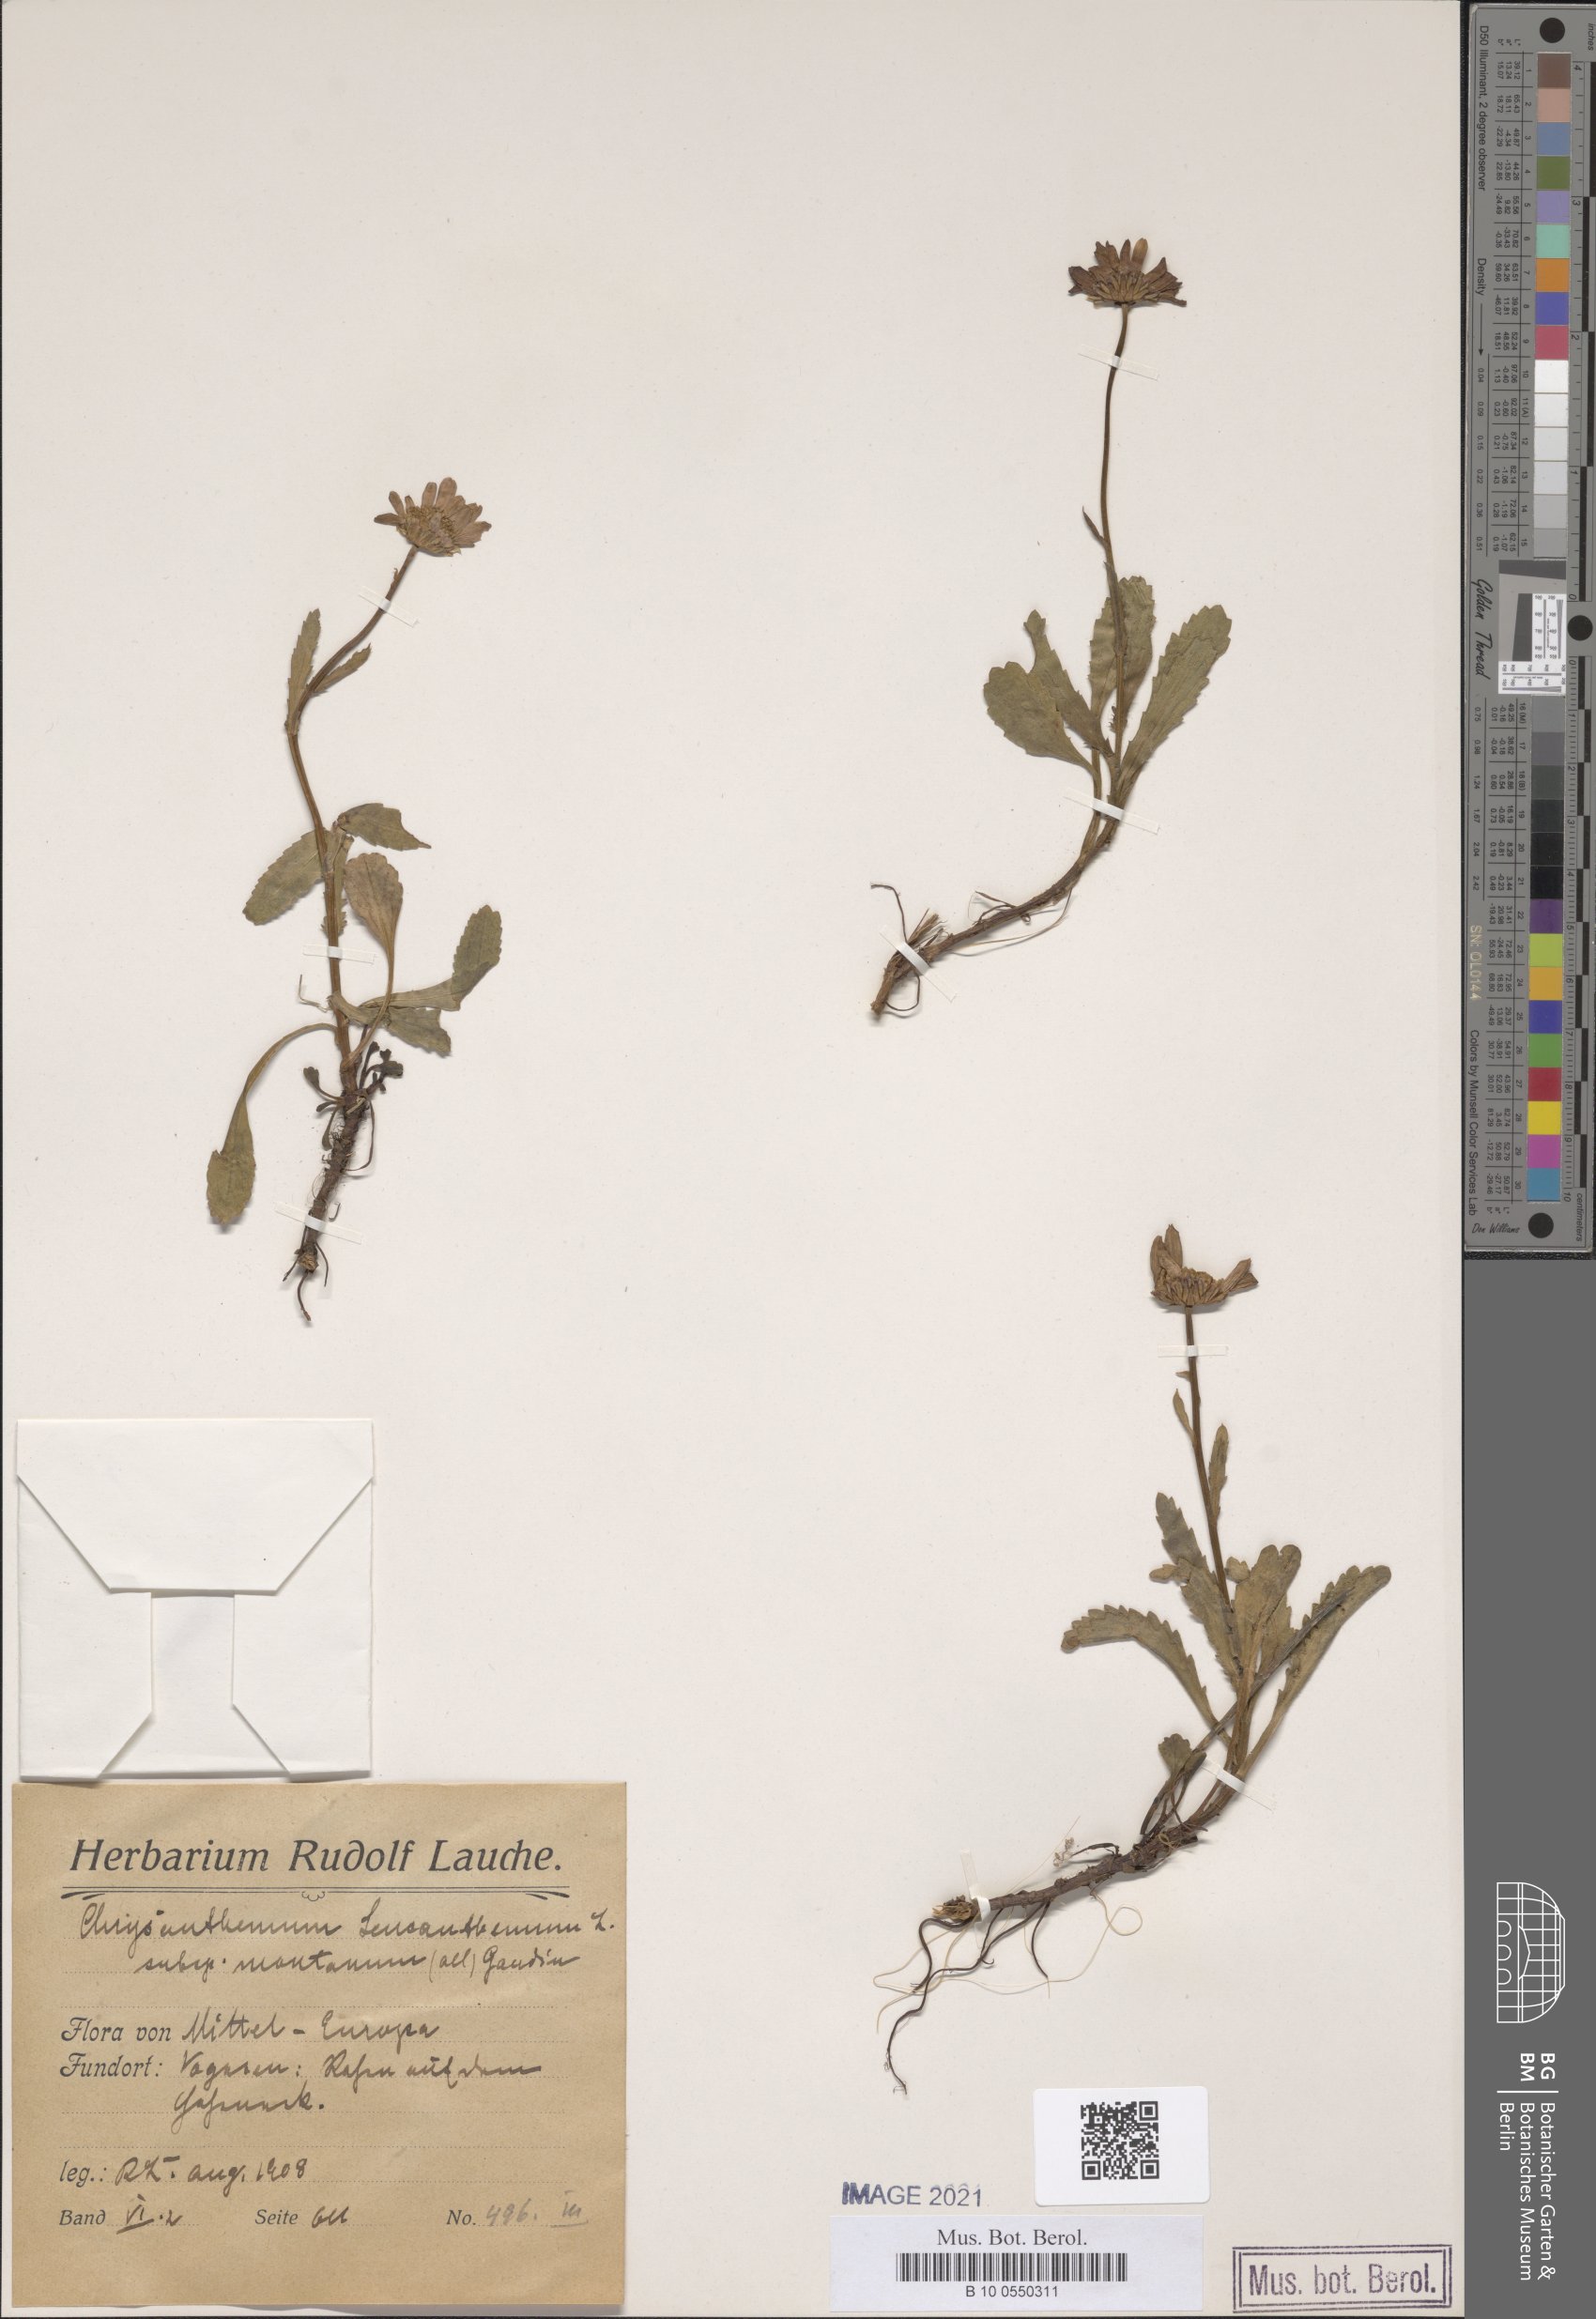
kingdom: Plantae
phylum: Tracheophyta
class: Magnoliopsida
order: Asterales
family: Asteraceae
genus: Leucanthemum
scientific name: Leucanthemum ircutianum
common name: Daisy
